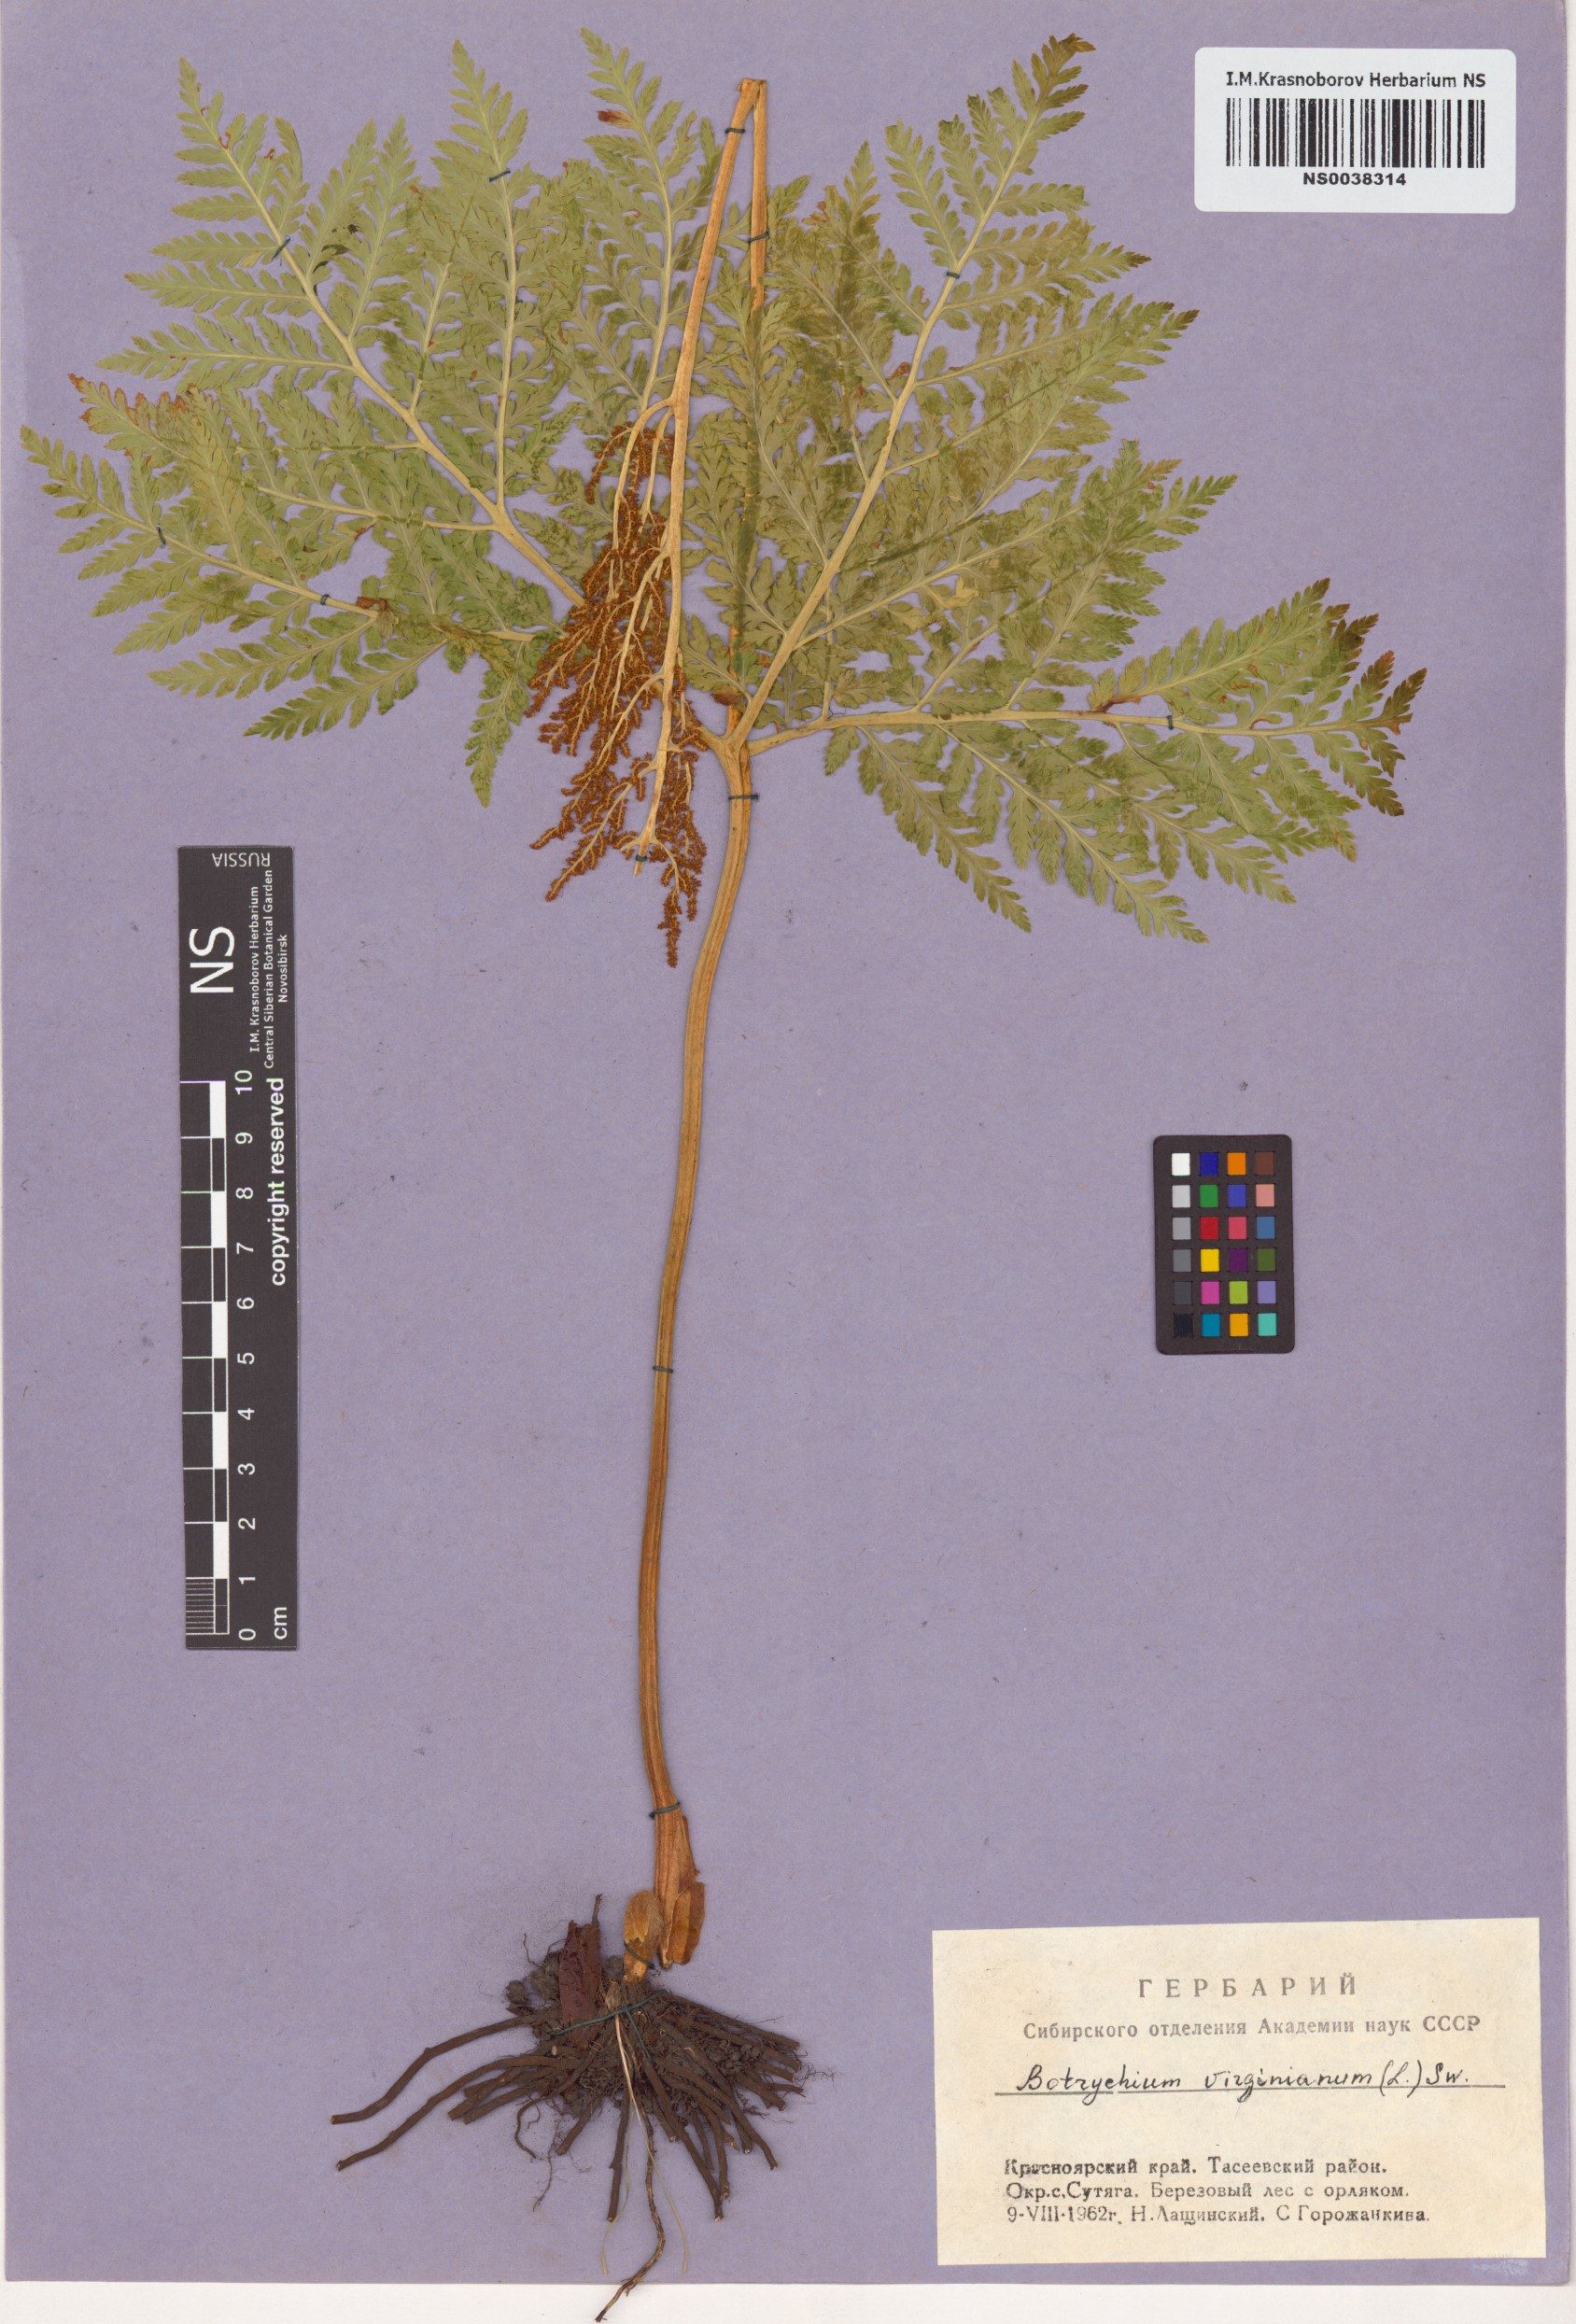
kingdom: Plantae
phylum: Tracheophyta
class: Polypodiopsida
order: Ophioglossales
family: Ophioglossaceae
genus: Botrypus
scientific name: Botrypus virginianus
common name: Common grapefern
